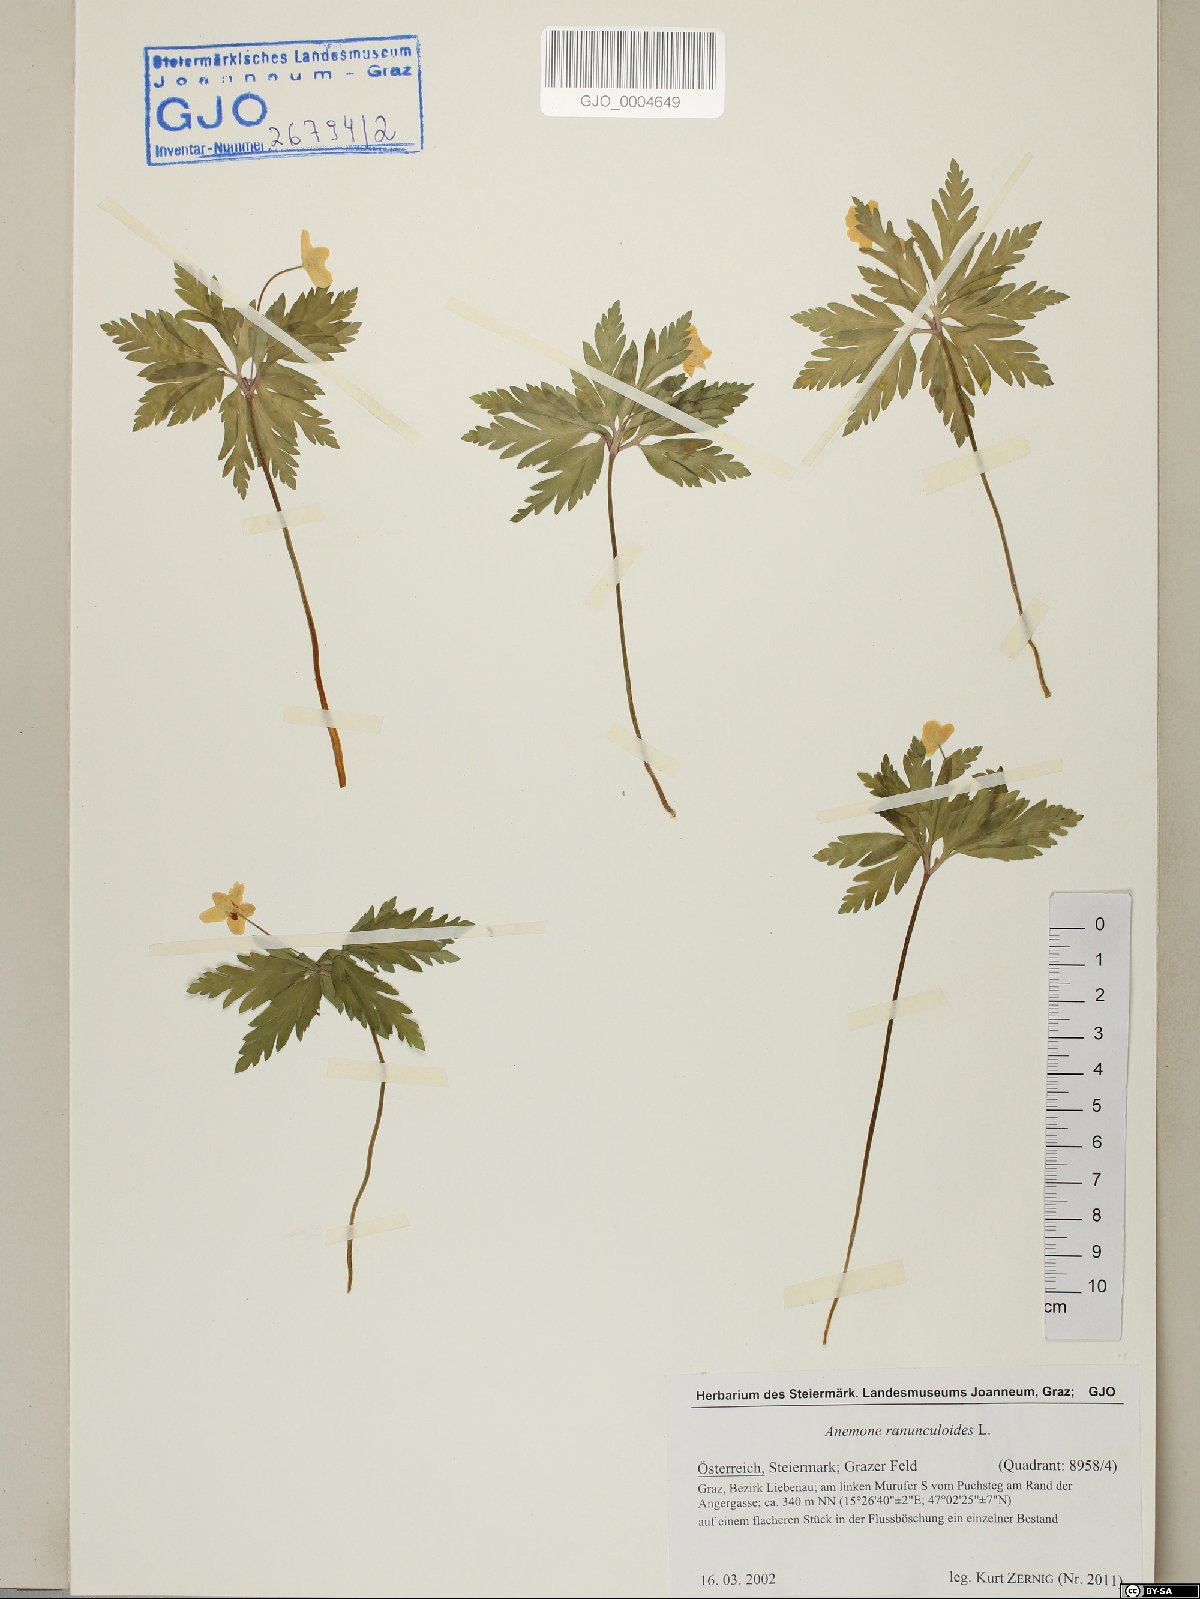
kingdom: Plantae
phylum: Tracheophyta
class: Magnoliopsida
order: Ranunculales
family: Ranunculaceae
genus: Anemone
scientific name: Anemone ranunculoides
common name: Yellow anemone
